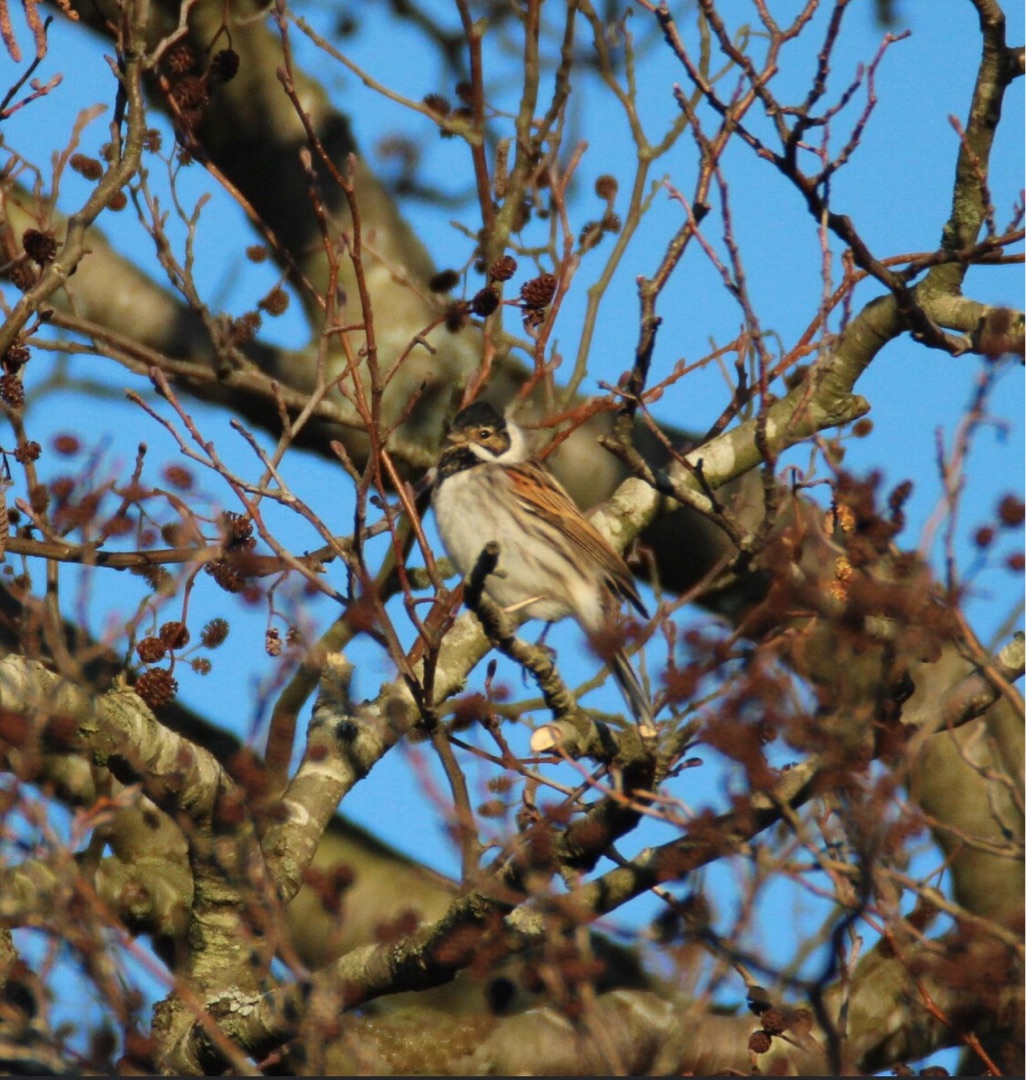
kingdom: Animalia
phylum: Chordata
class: Aves
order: Passeriformes
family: Emberizidae
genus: Emberiza
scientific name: Emberiza schoeniclus
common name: Rørspurv
